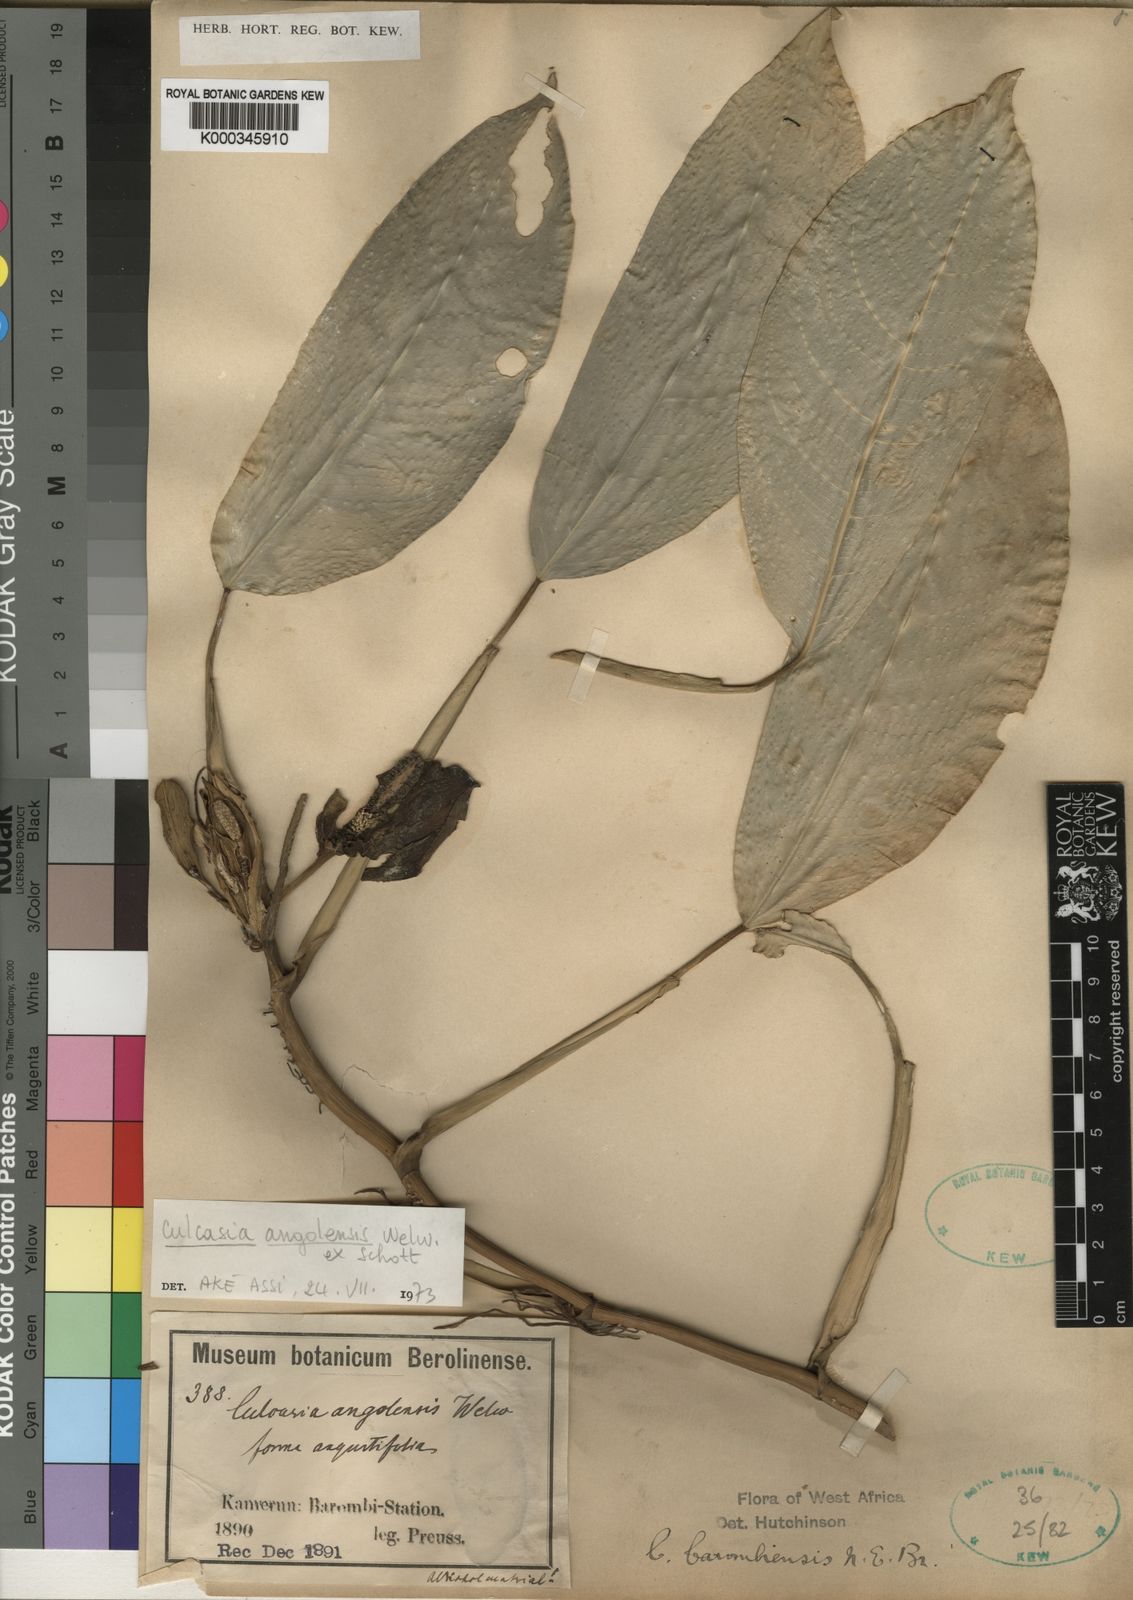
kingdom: Plantae
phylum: Tracheophyta
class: Liliopsida
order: Alismatales
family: Araceae
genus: Culcasia
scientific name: Culcasia angolensis
